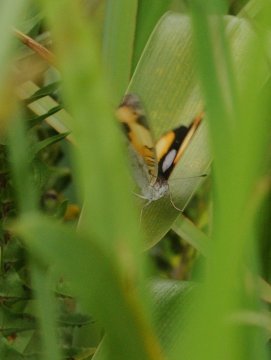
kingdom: Animalia
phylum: Arthropoda
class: Insecta
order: Lepidoptera
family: Nymphalidae
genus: Junonia
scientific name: Junonia hierta
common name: Yellow Pansy
